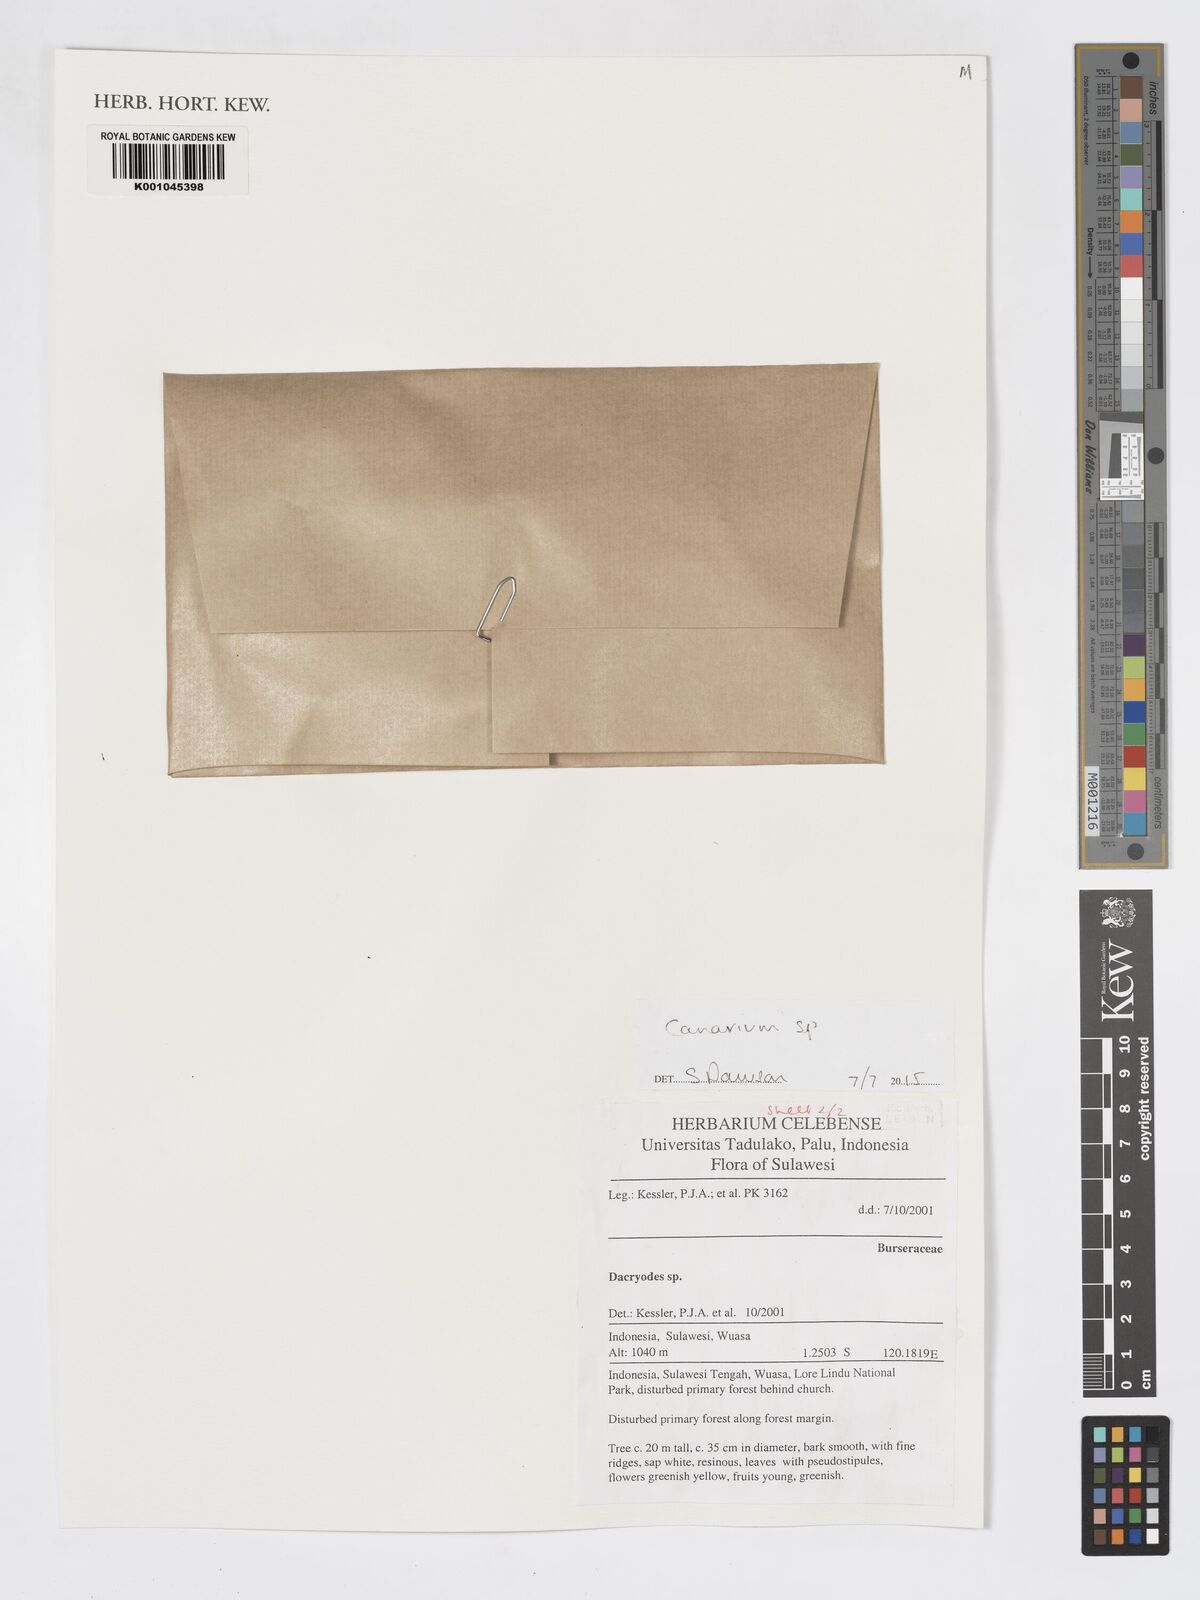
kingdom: Plantae
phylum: Tracheophyta
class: Magnoliopsida
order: Sapindales
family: Burseraceae
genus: Canarium
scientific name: Canarium
